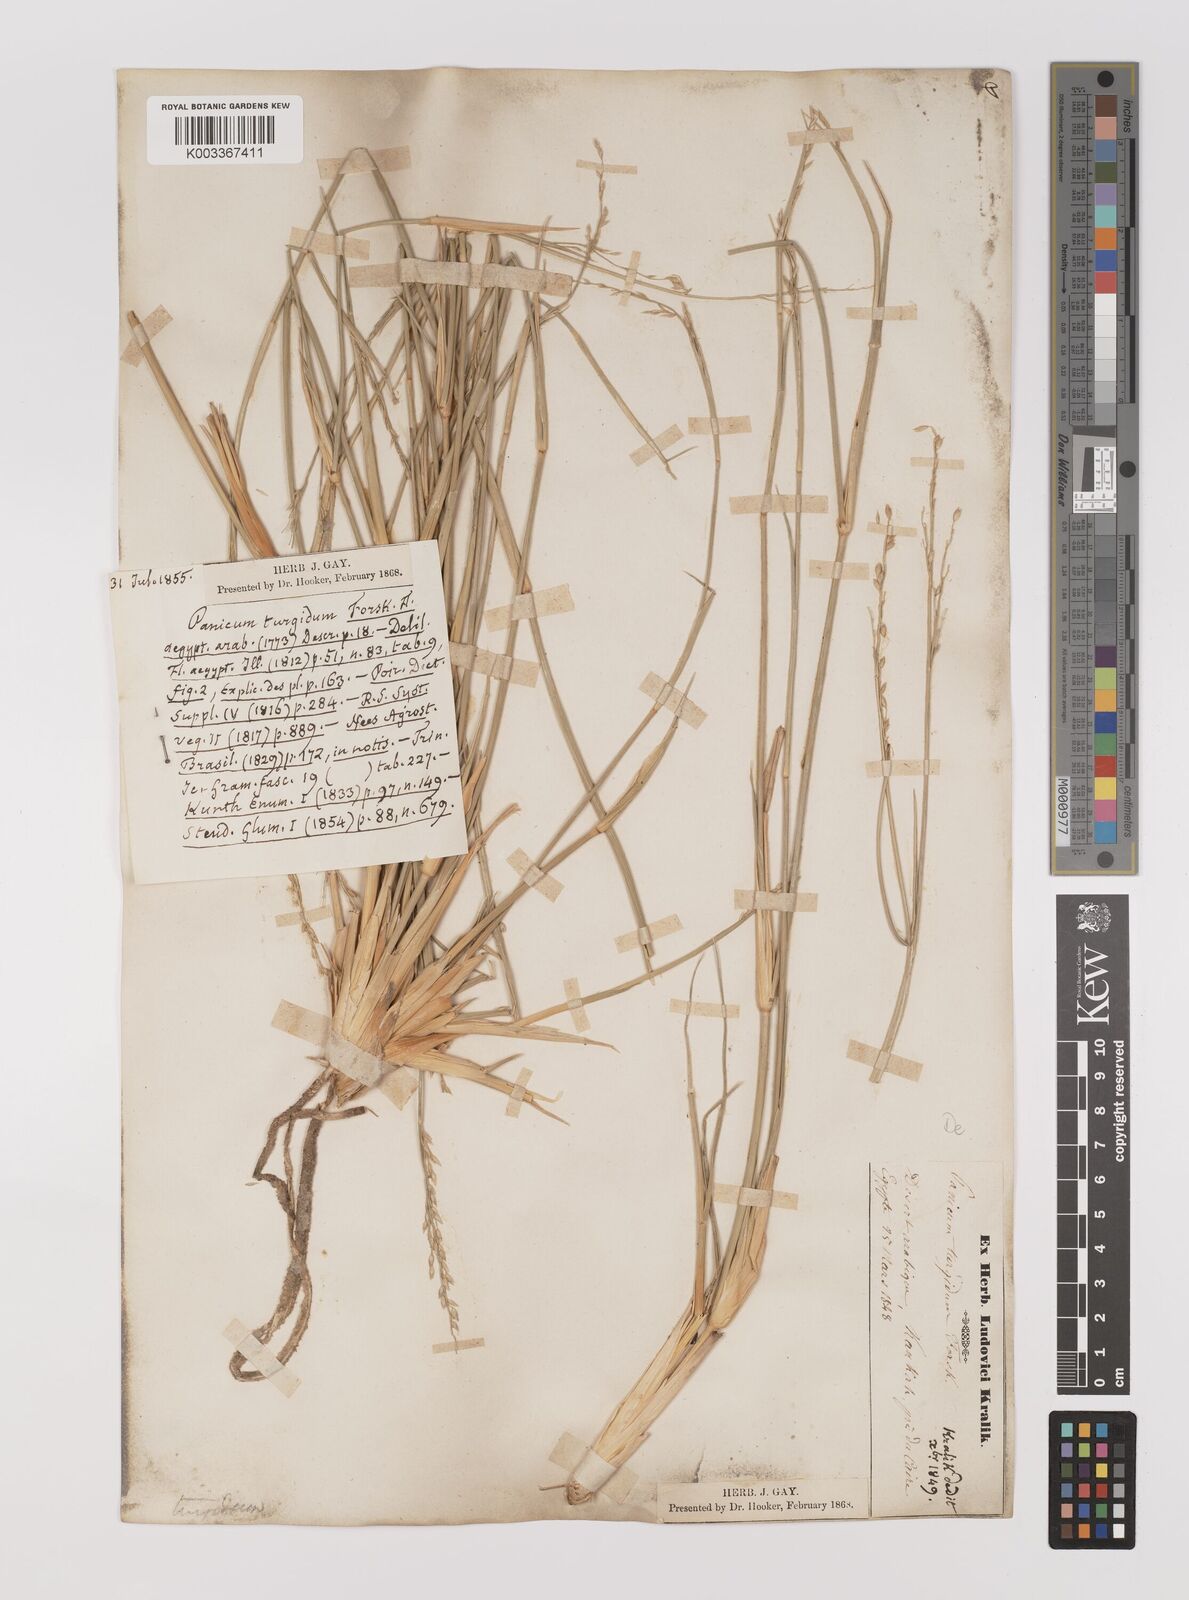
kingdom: Plantae
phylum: Tracheophyta
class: Liliopsida
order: Poales
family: Poaceae
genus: Panicum
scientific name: Panicum turgidum
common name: Desert grass
